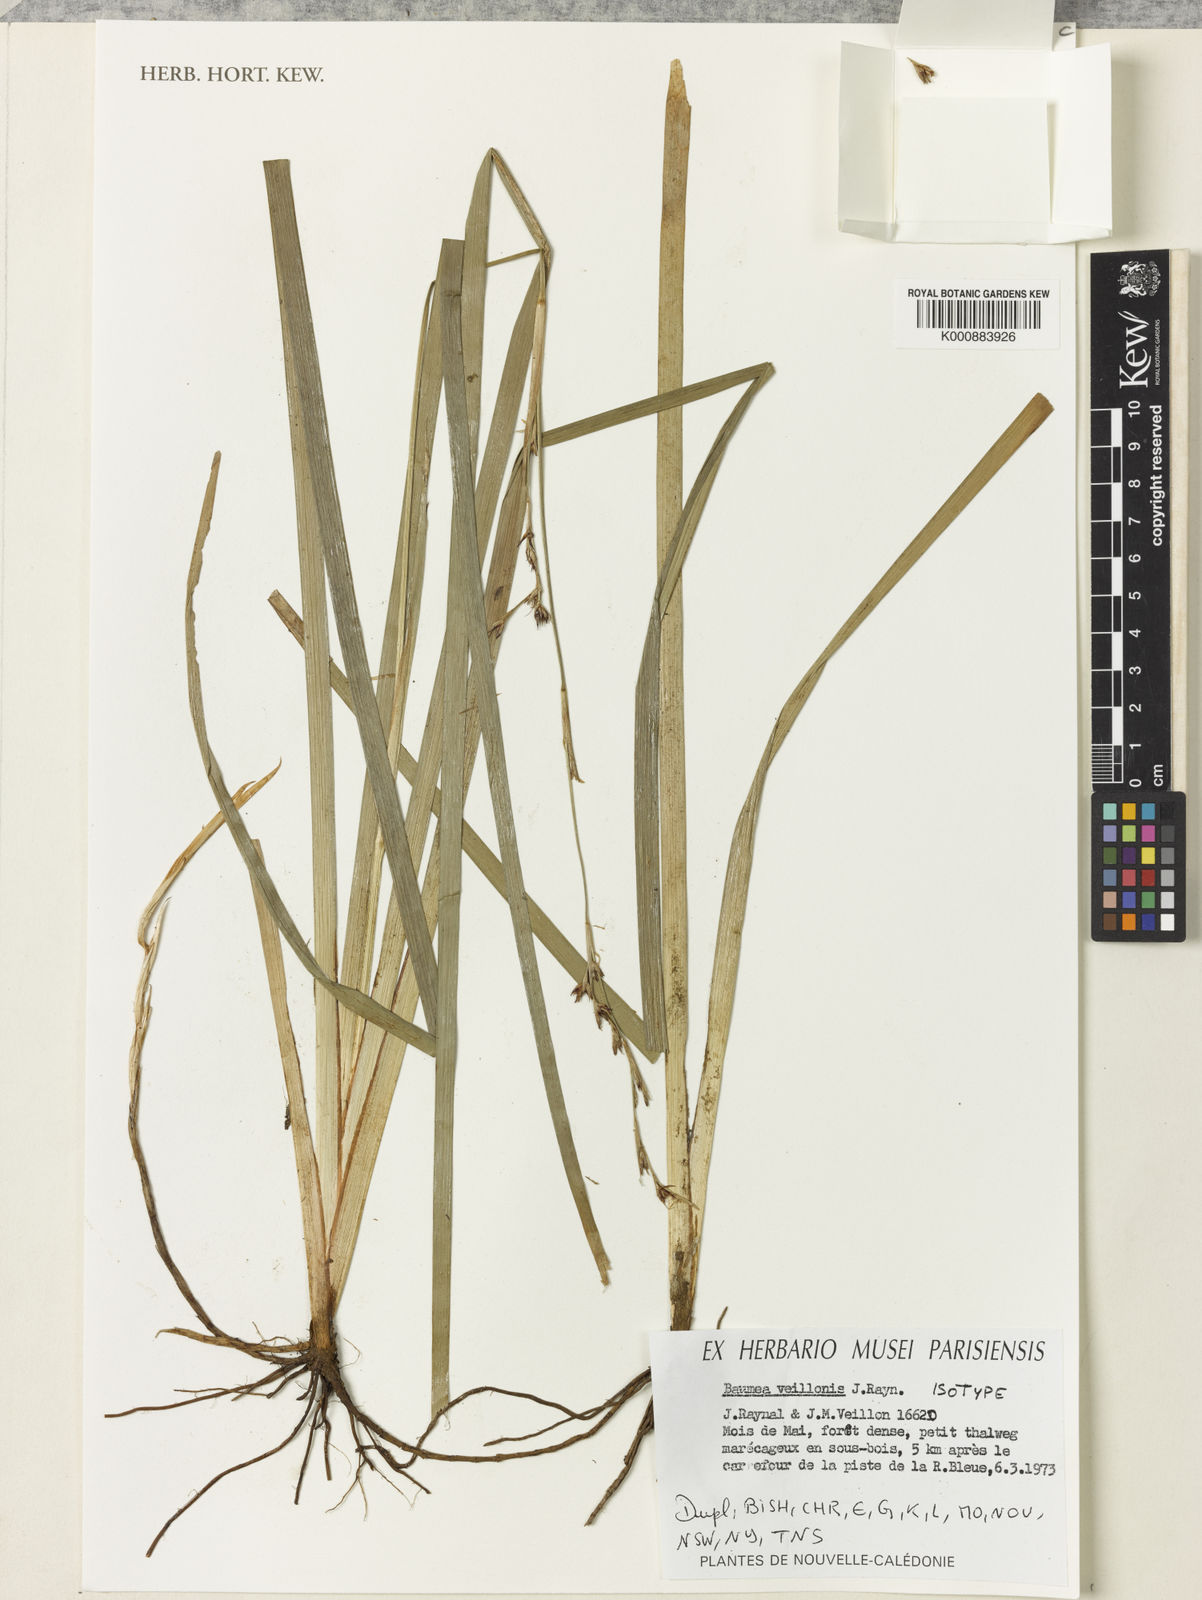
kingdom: Plantae
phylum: Tracheophyta
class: Liliopsida
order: Poales
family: Cyperaceae
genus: Machaerina
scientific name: Machaerina veillonis
